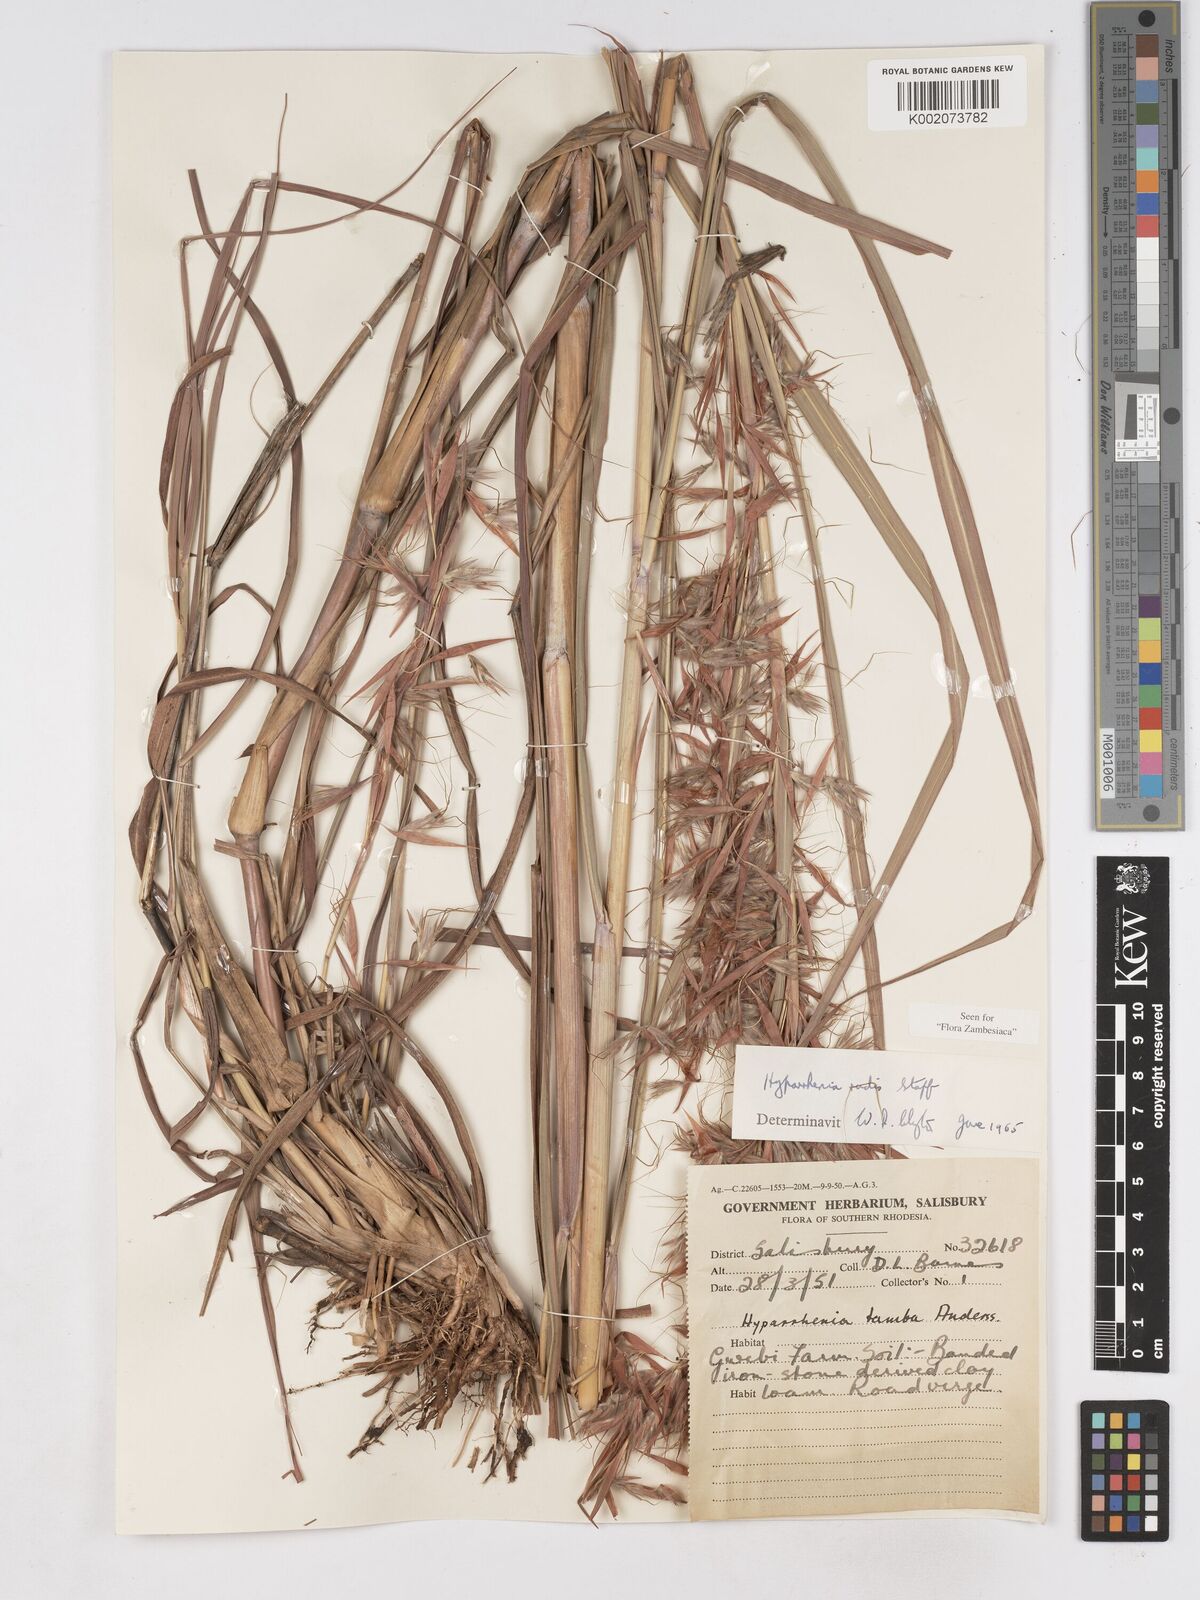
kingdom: Plantae
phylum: Tracheophyta
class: Liliopsida
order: Poales
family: Poaceae
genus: Hyparrhenia
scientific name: Hyparrhenia rudis
